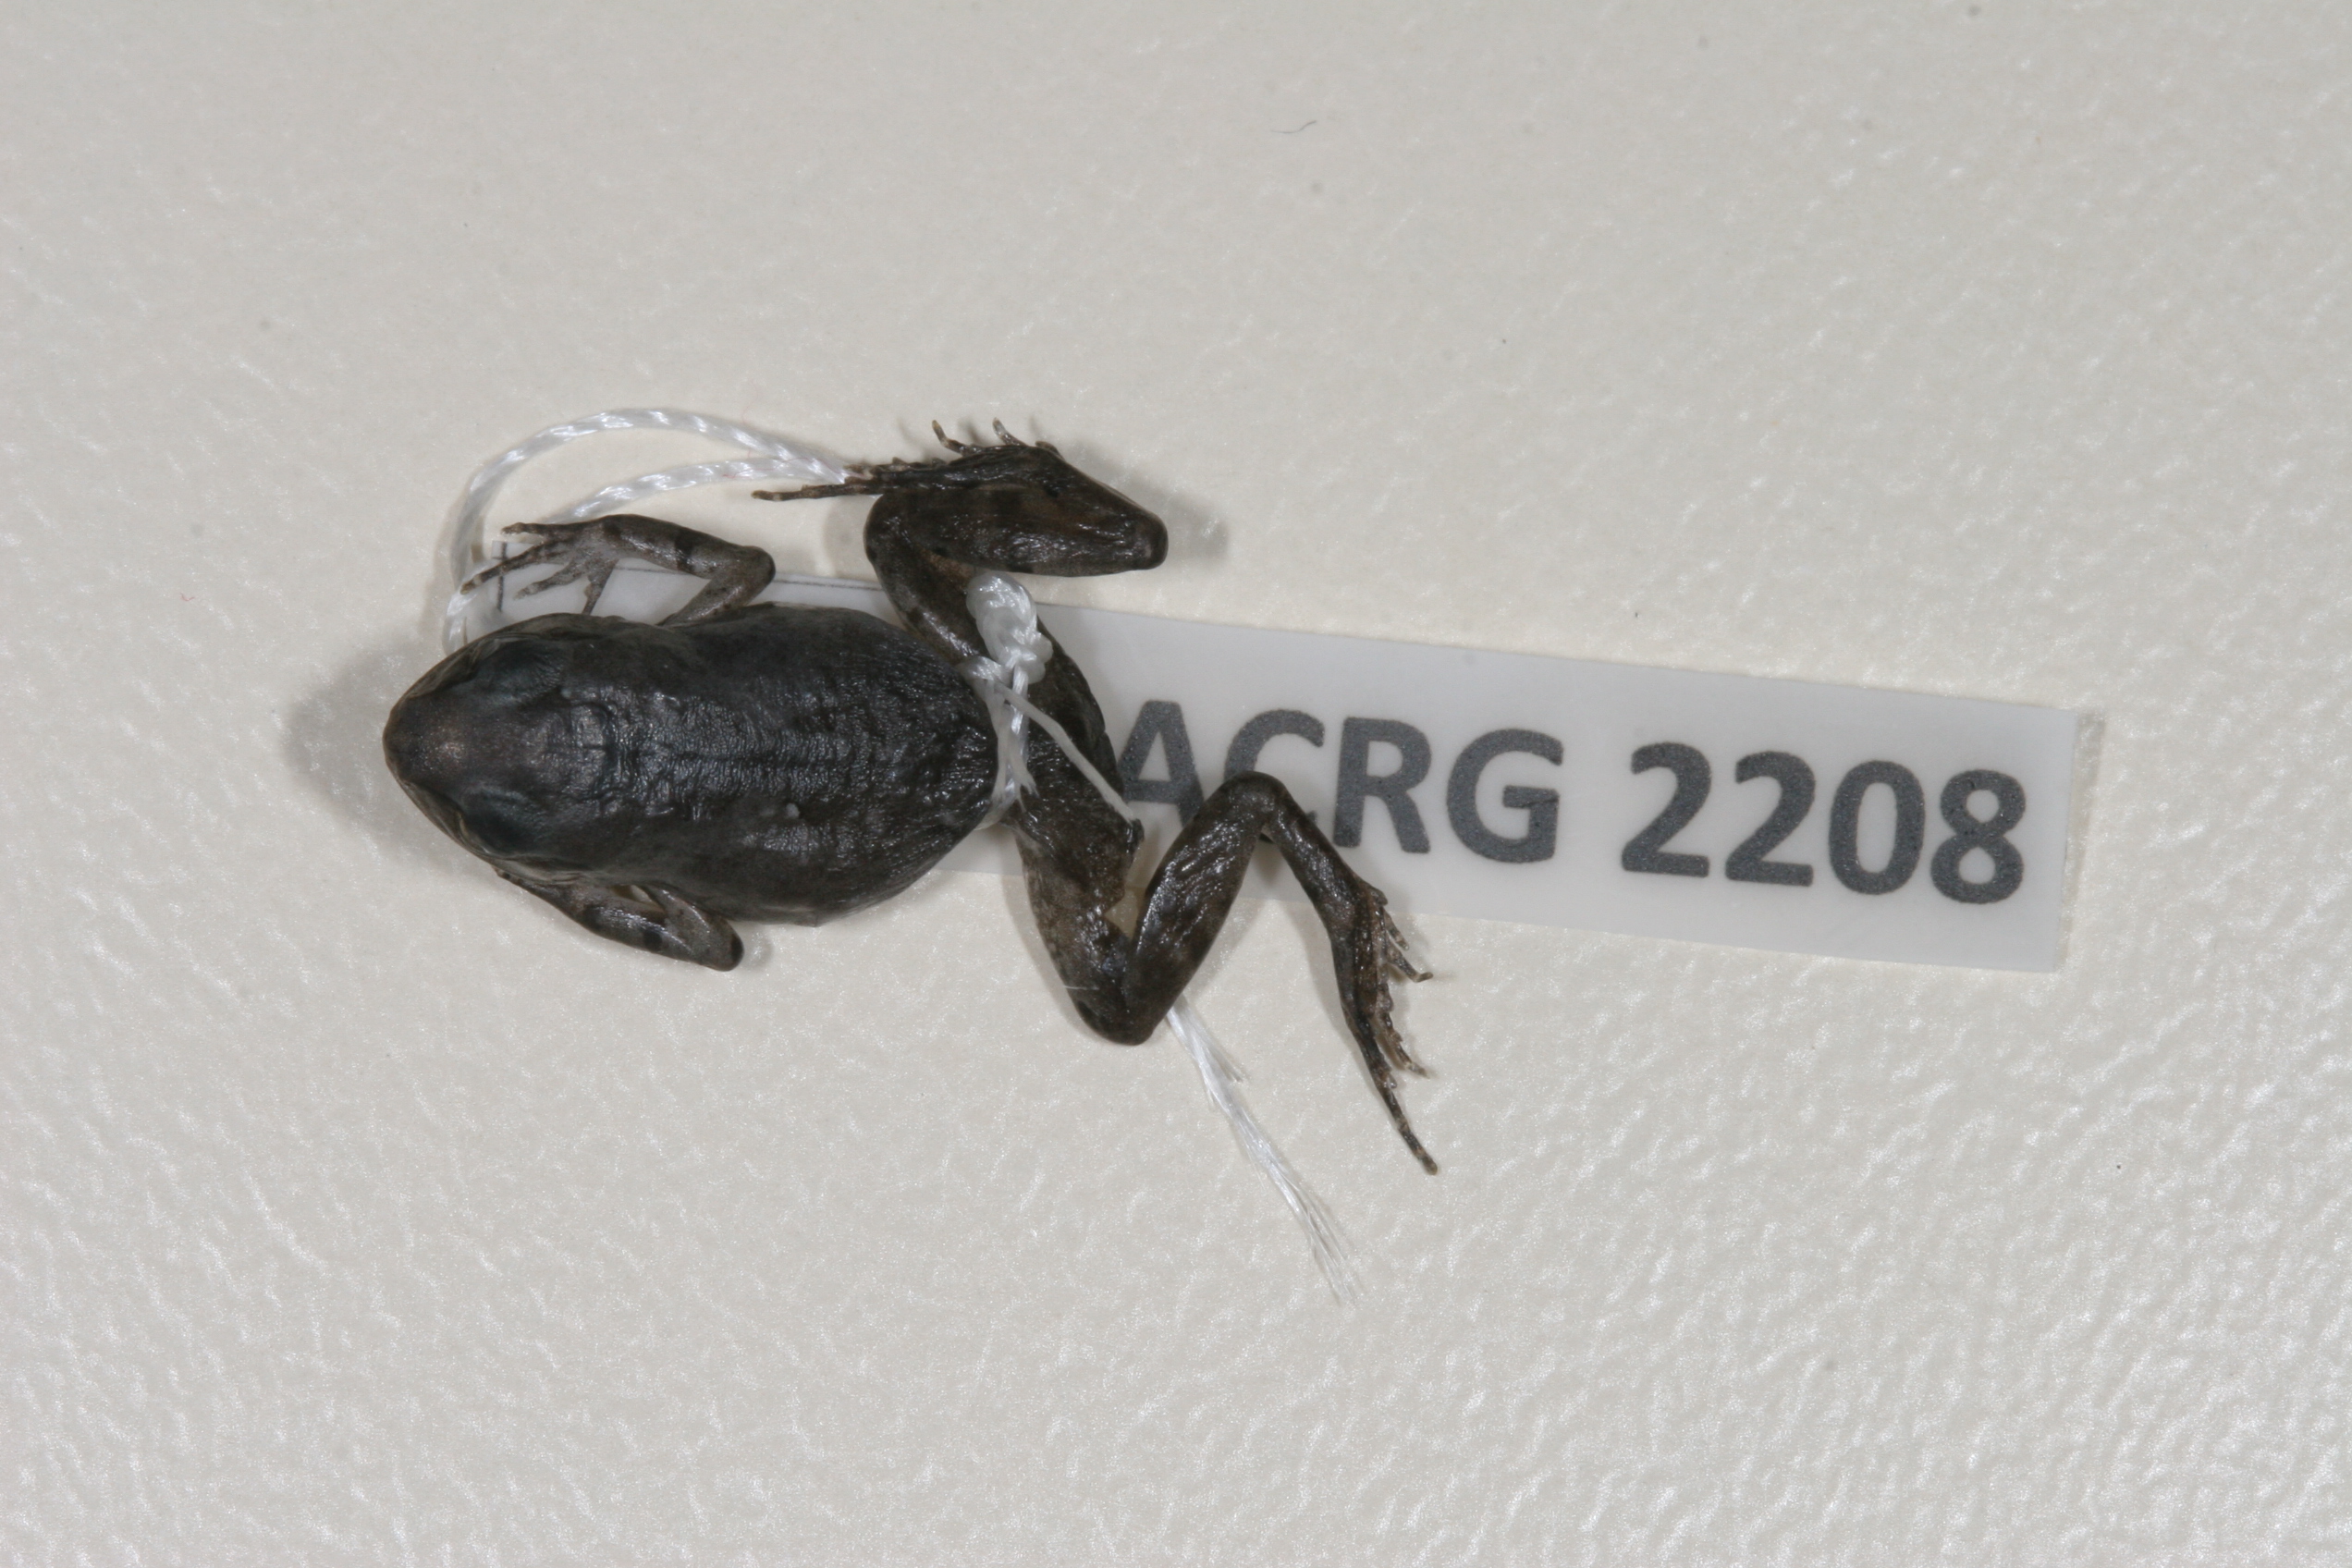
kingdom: Animalia
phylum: Chordata
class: Amphibia
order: Anura
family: Arthroleptidae
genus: Arthroleptis
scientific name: Arthroleptis wahlbergii
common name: Bush squeaker
